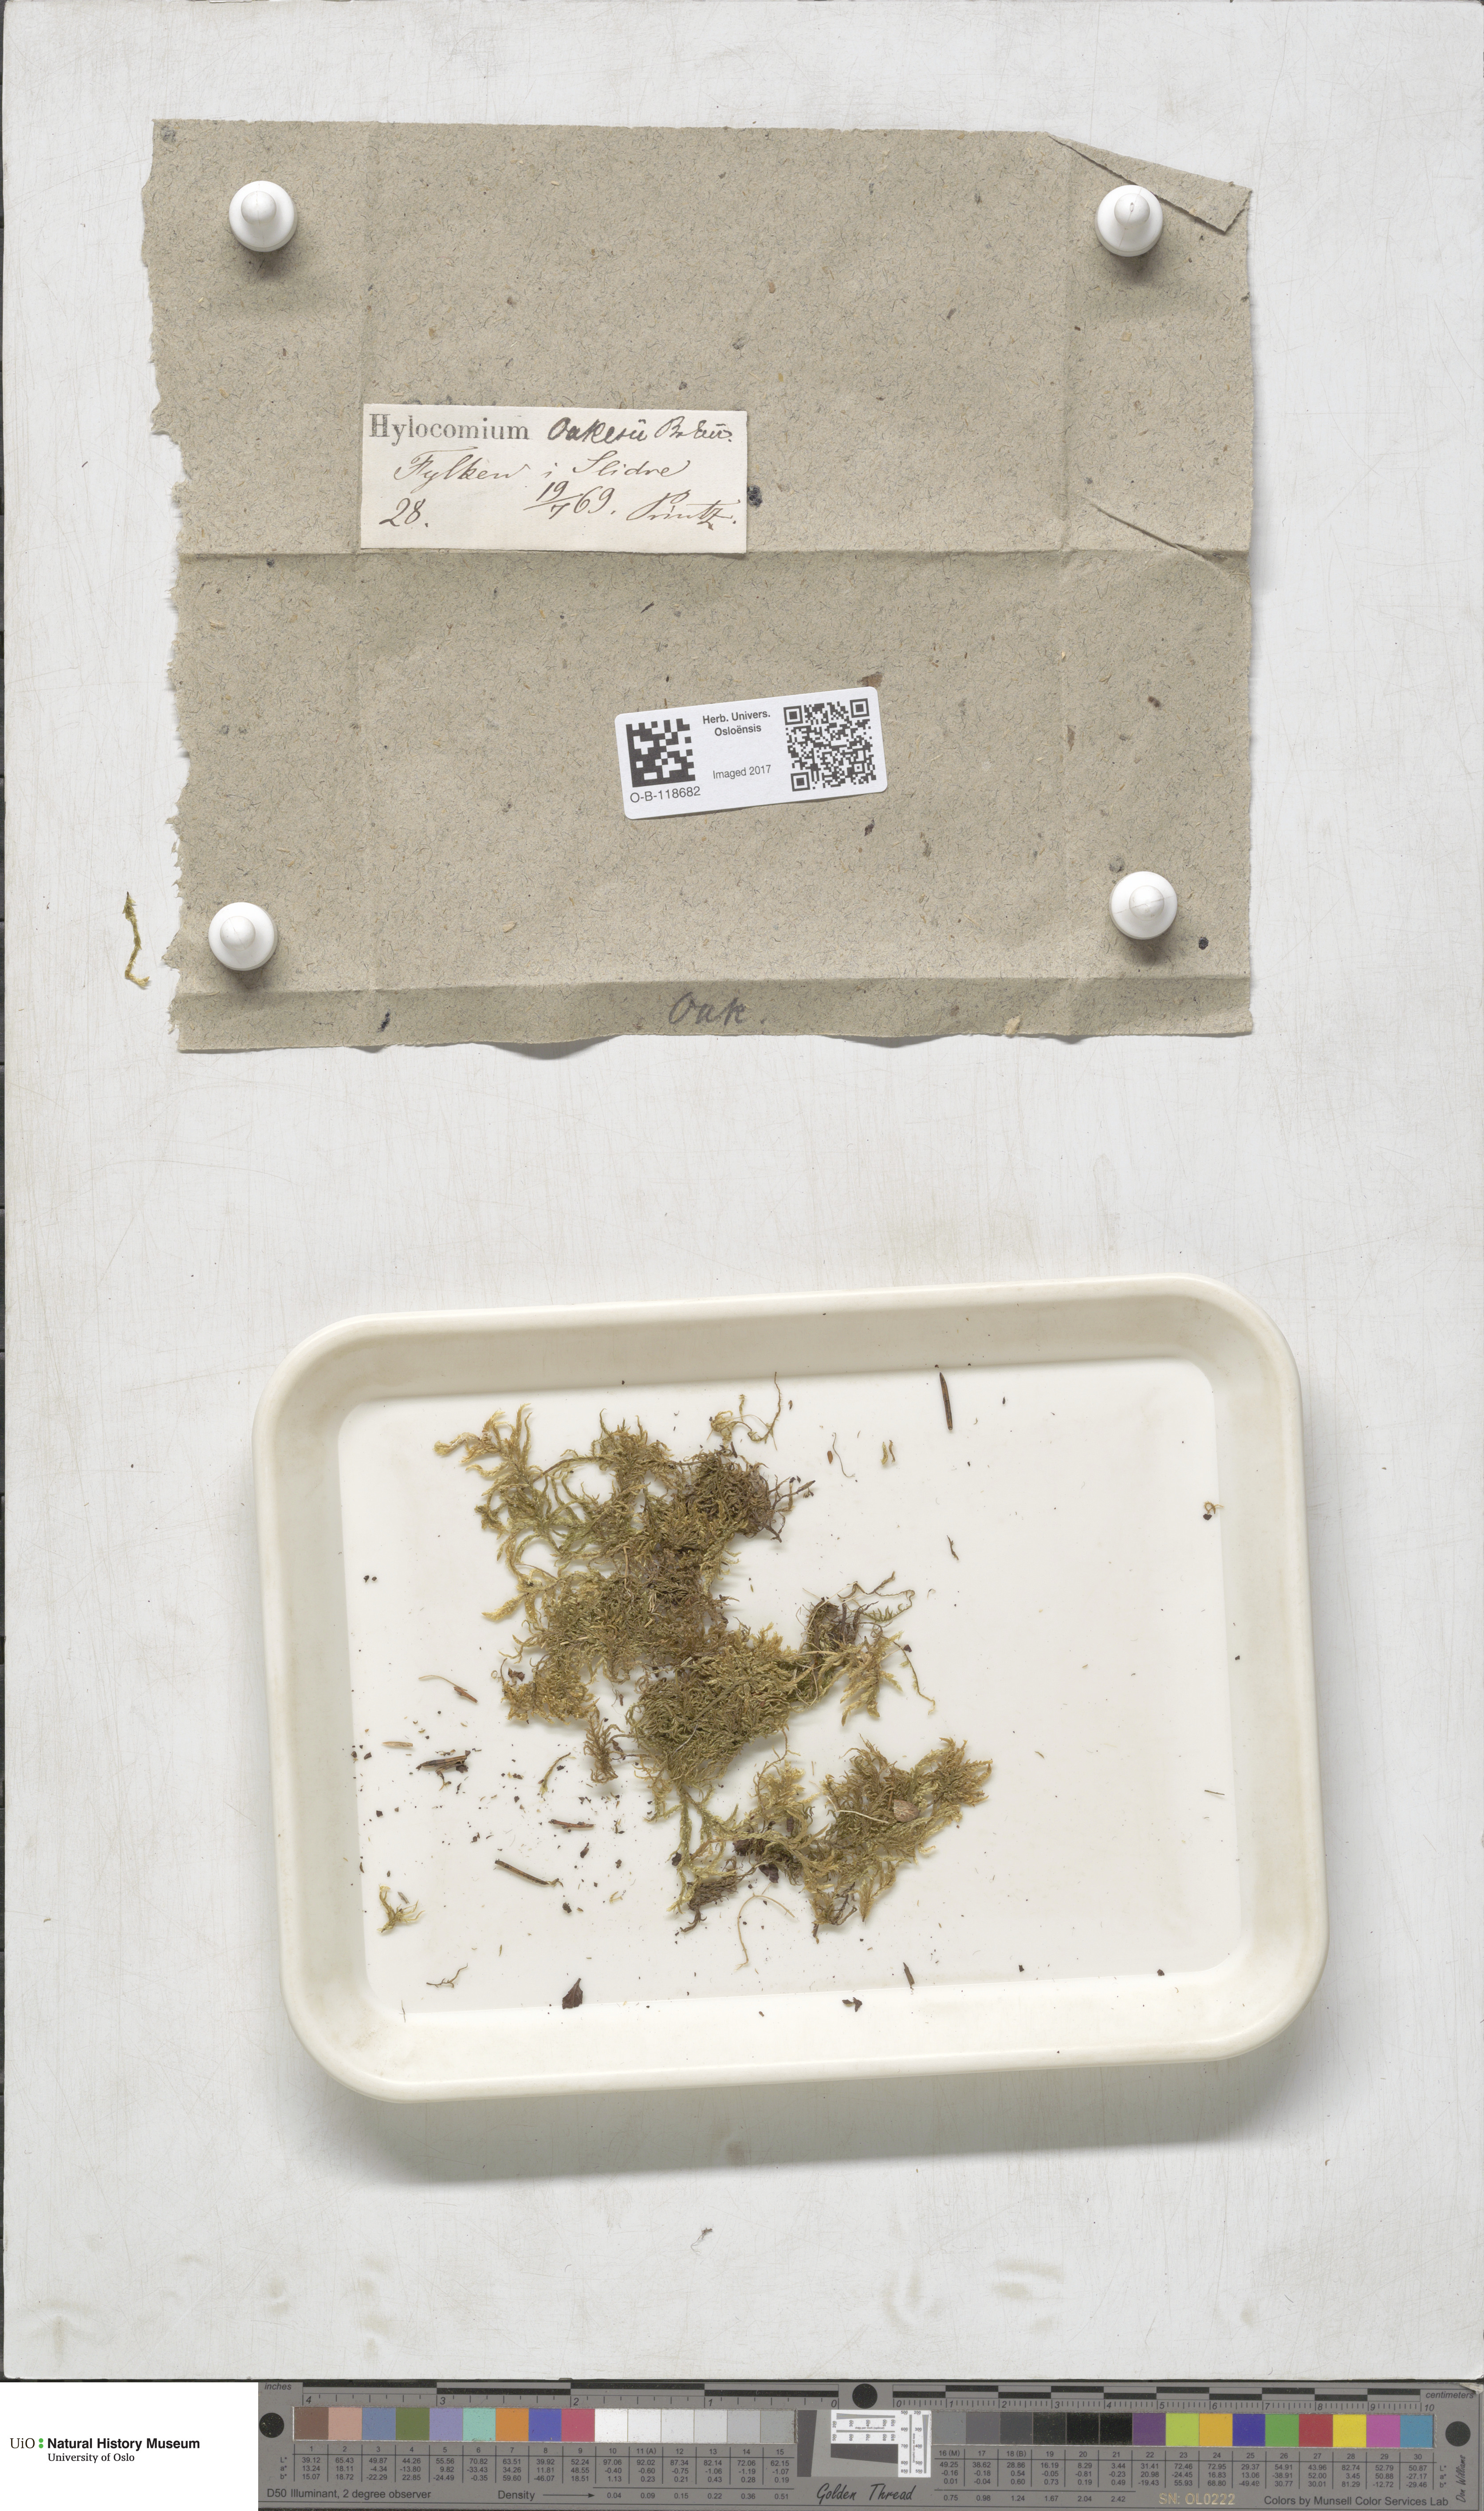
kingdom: Plantae
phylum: Bryophyta
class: Bryopsida
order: Hypnales
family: Hylocomiaceae
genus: Hylocomiastrum
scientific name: Hylocomiastrum pyrenaicum
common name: Oake s wood moss
